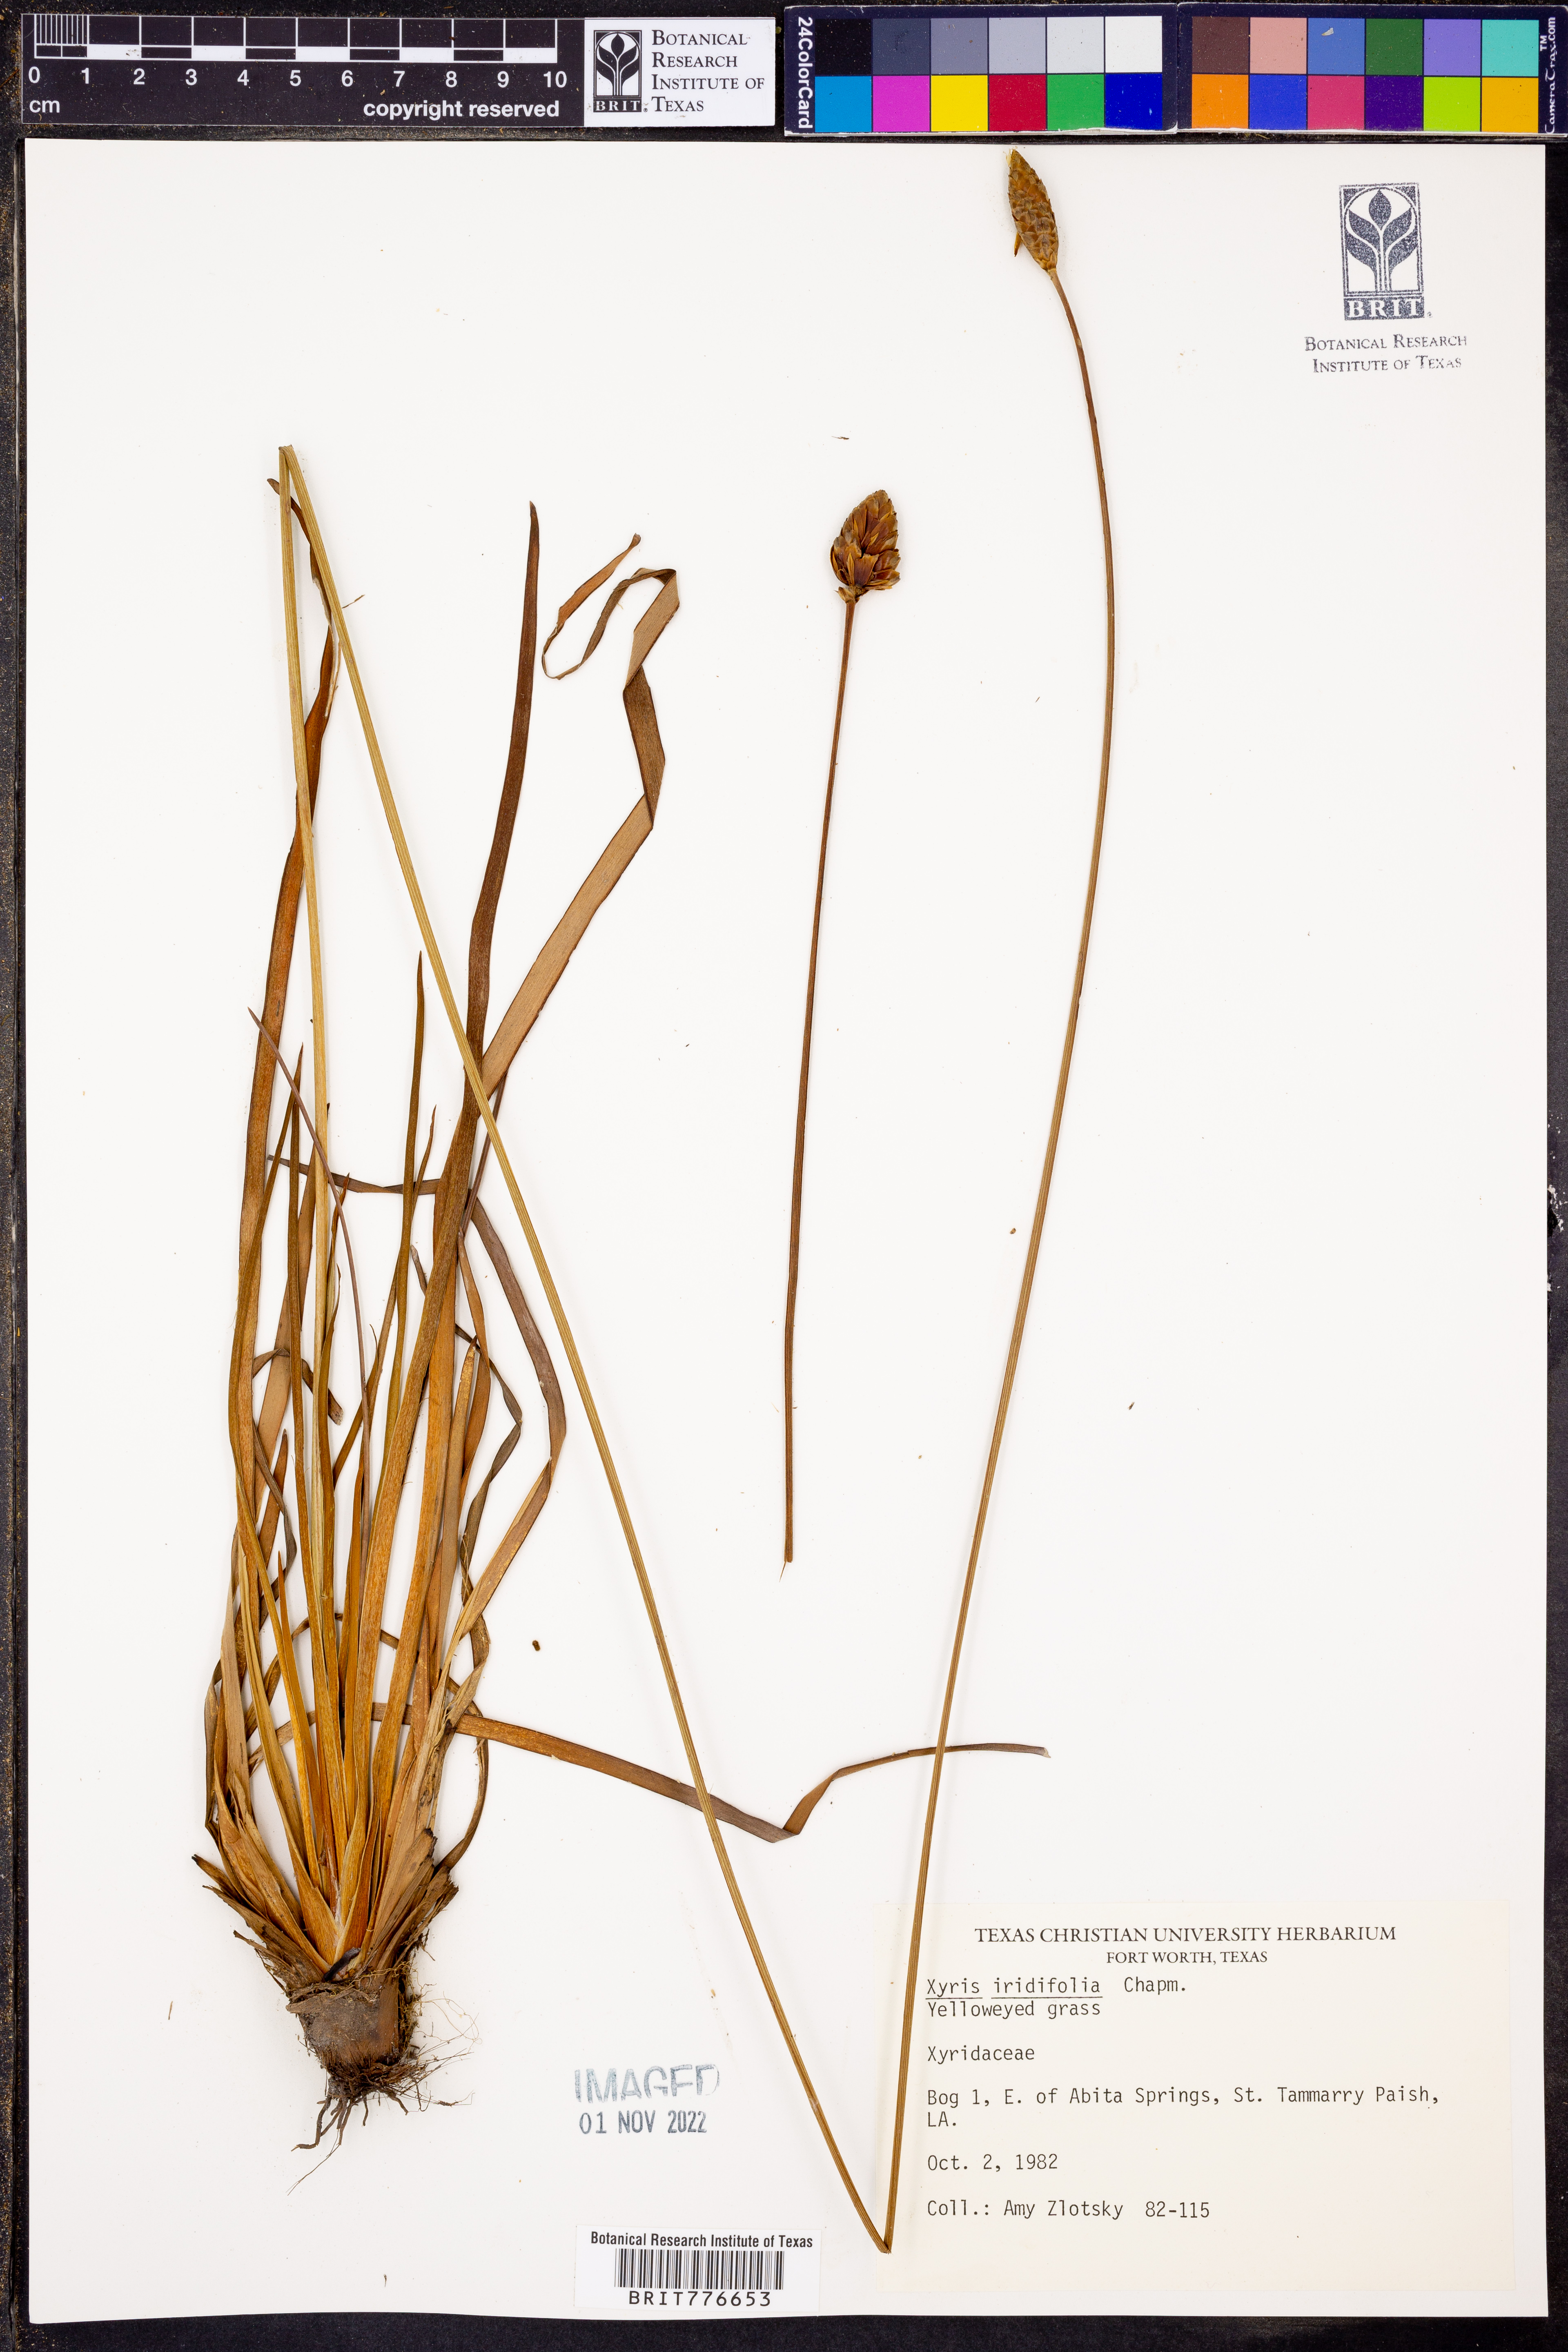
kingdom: Plantae
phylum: Tracheophyta
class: Liliopsida
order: Poales
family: Xyridaceae
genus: Xyris
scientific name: Xyris laxifolia
